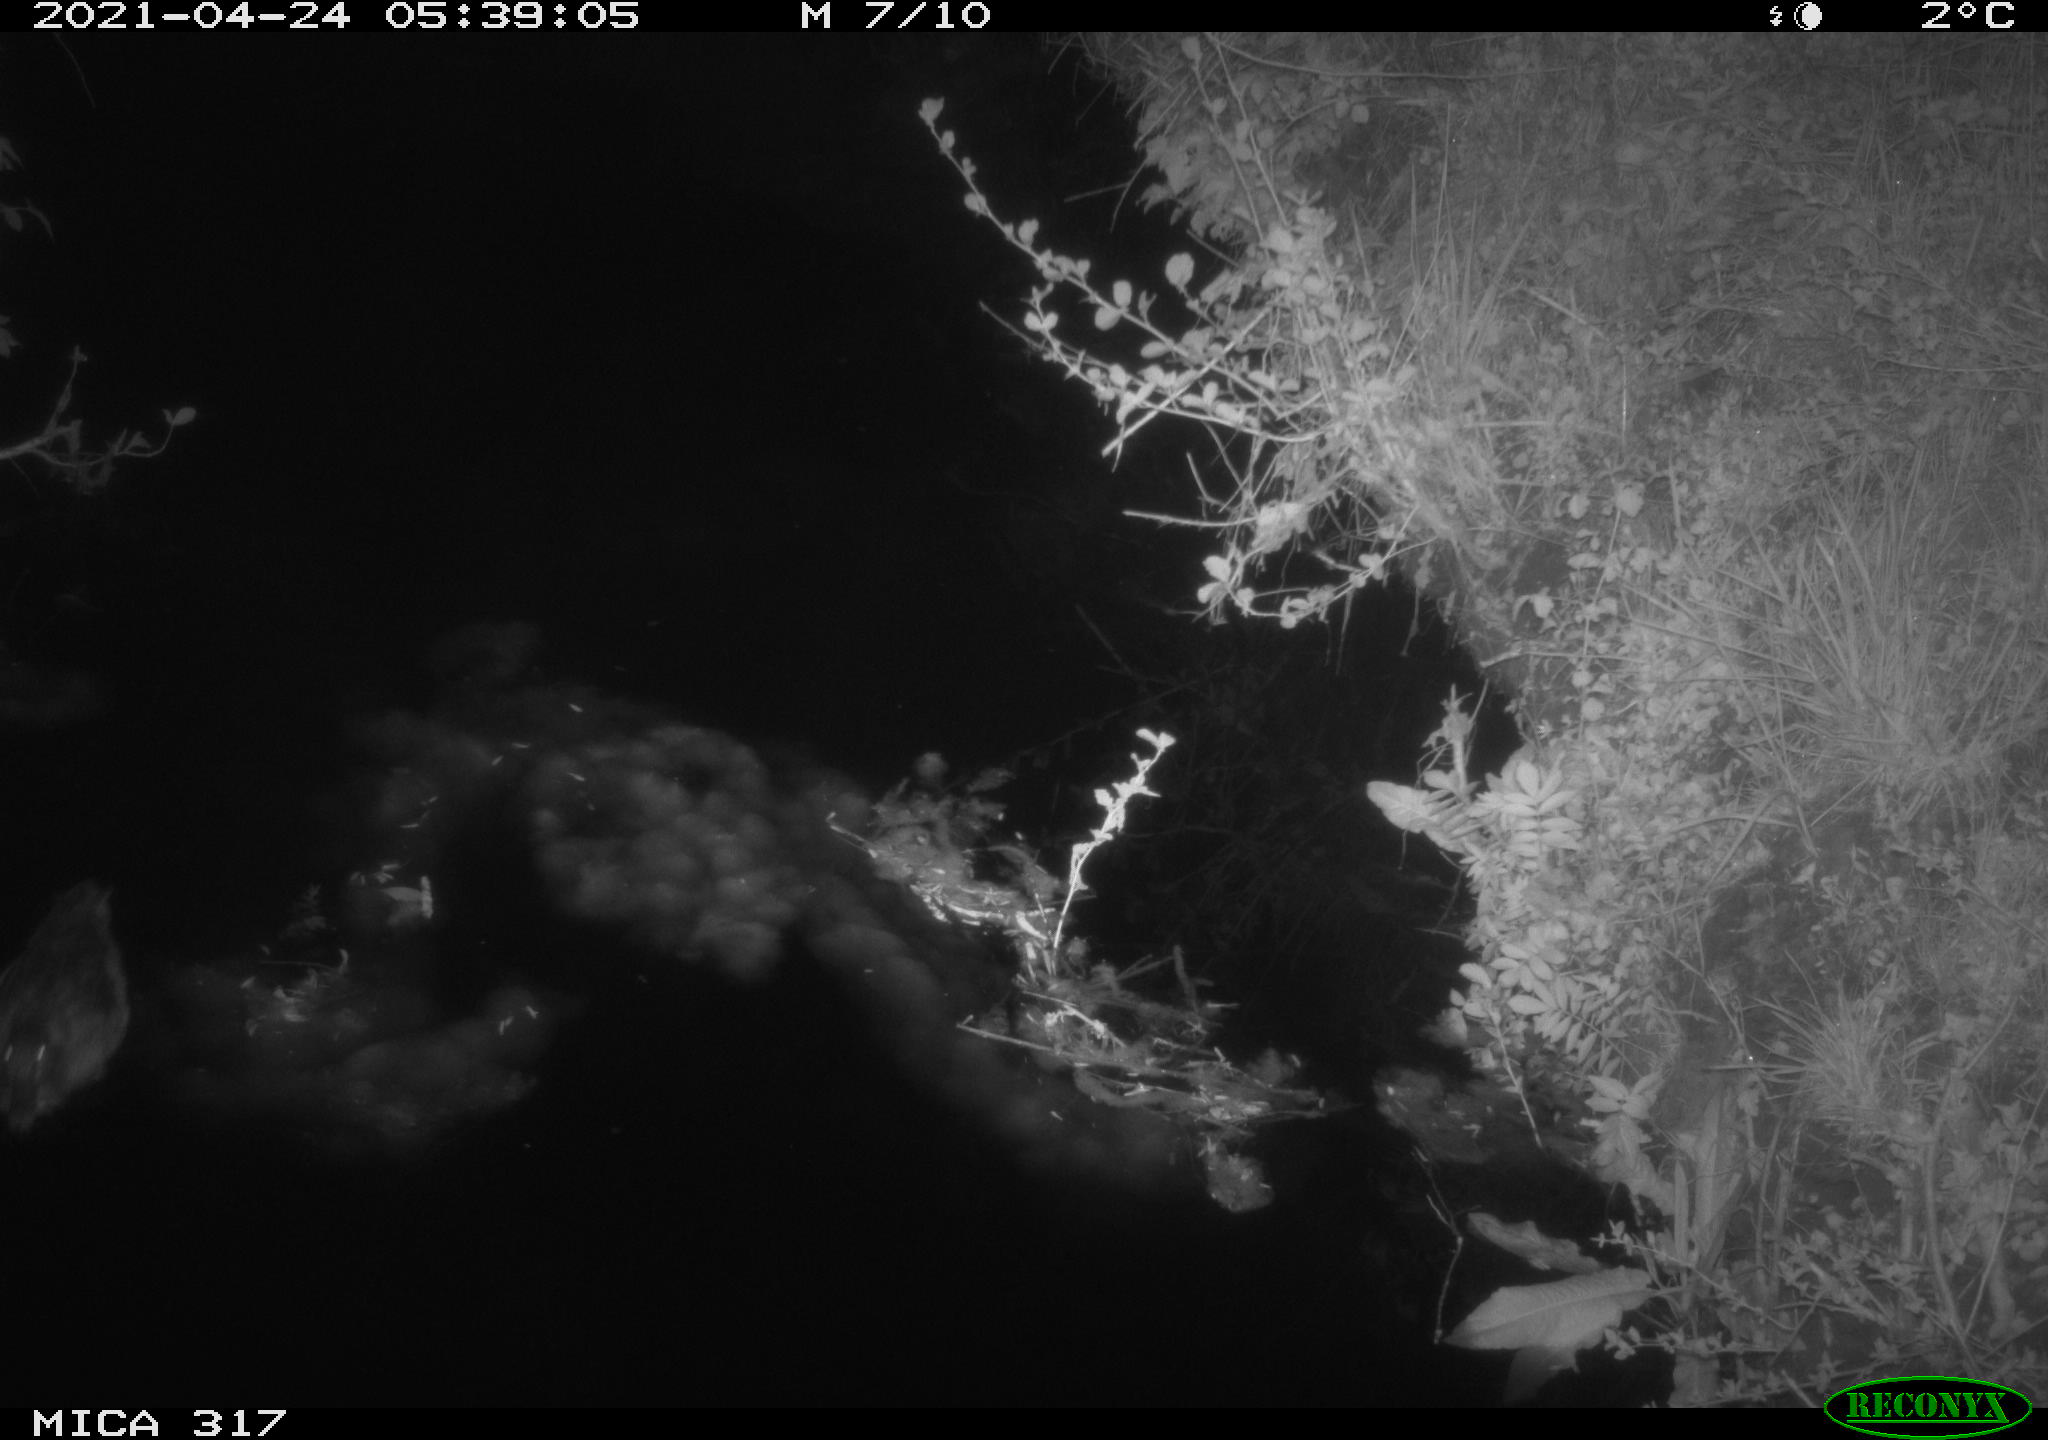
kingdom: Animalia
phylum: Chordata
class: Aves
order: Anseriformes
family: Anatidae
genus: Anas
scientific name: Anas
